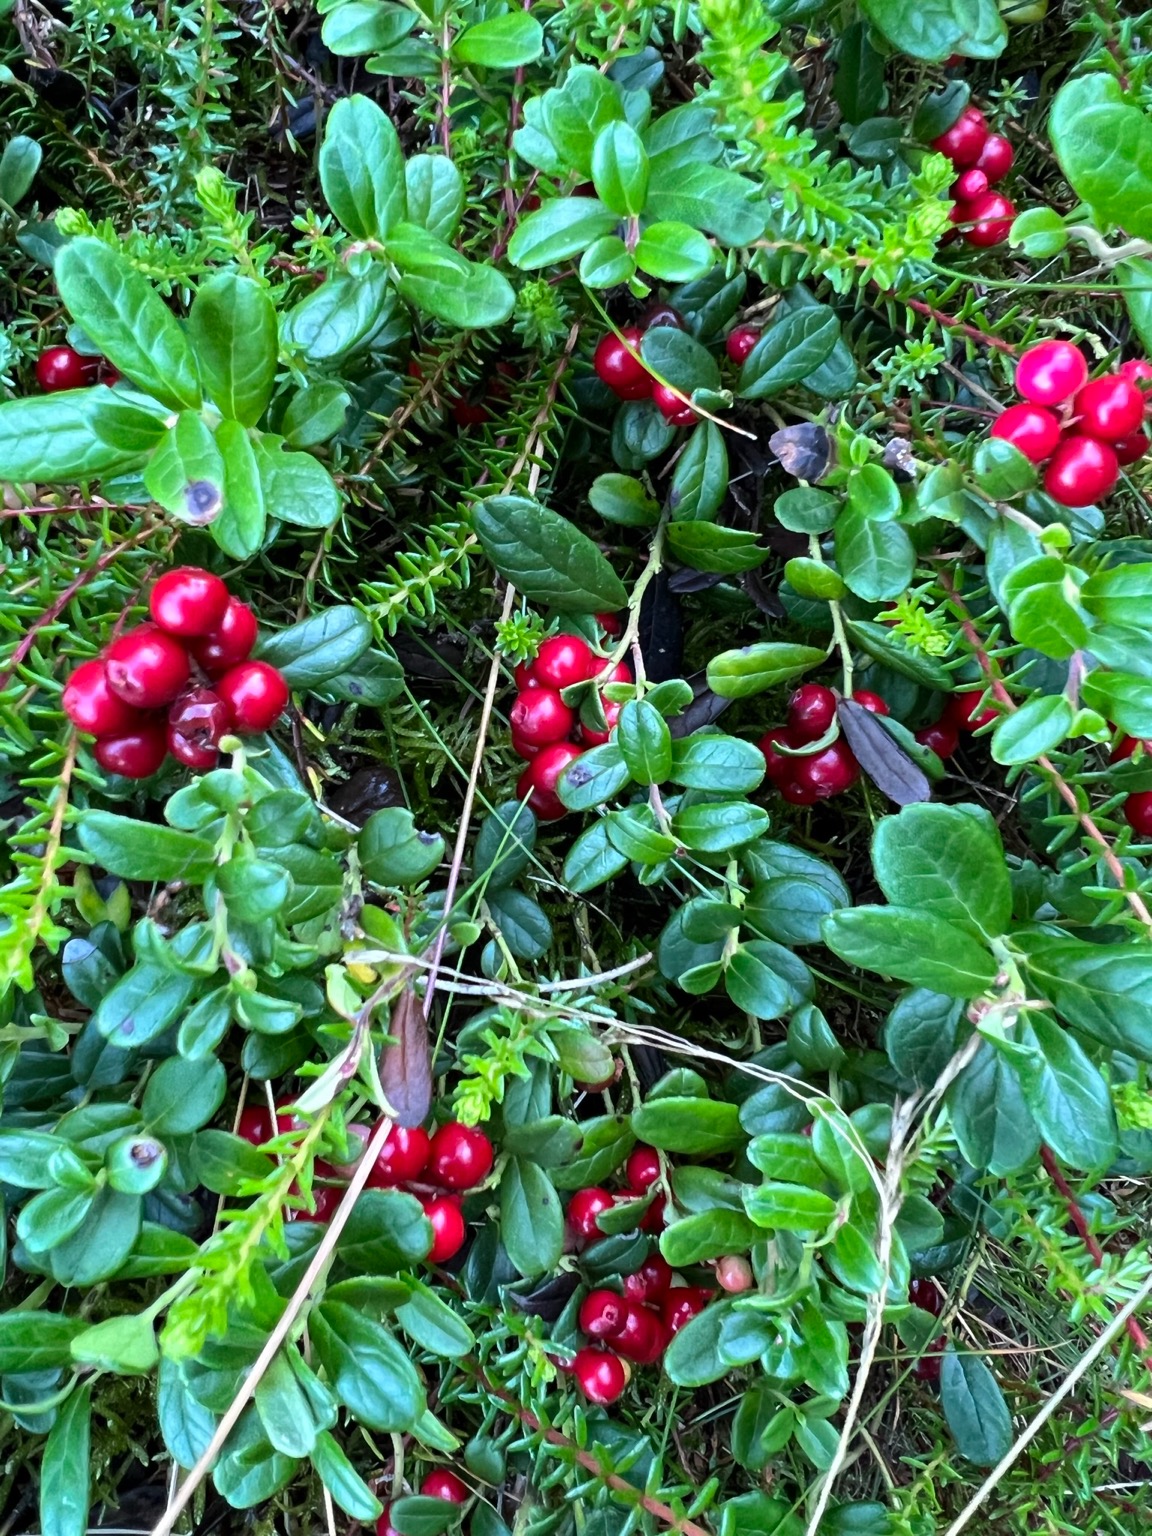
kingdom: Plantae
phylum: Tracheophyta
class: Magnoliopsida
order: Ericales
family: Ericaceae
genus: Vaccinium
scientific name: Vaccinium vitis-idaea
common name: Tyttebær
